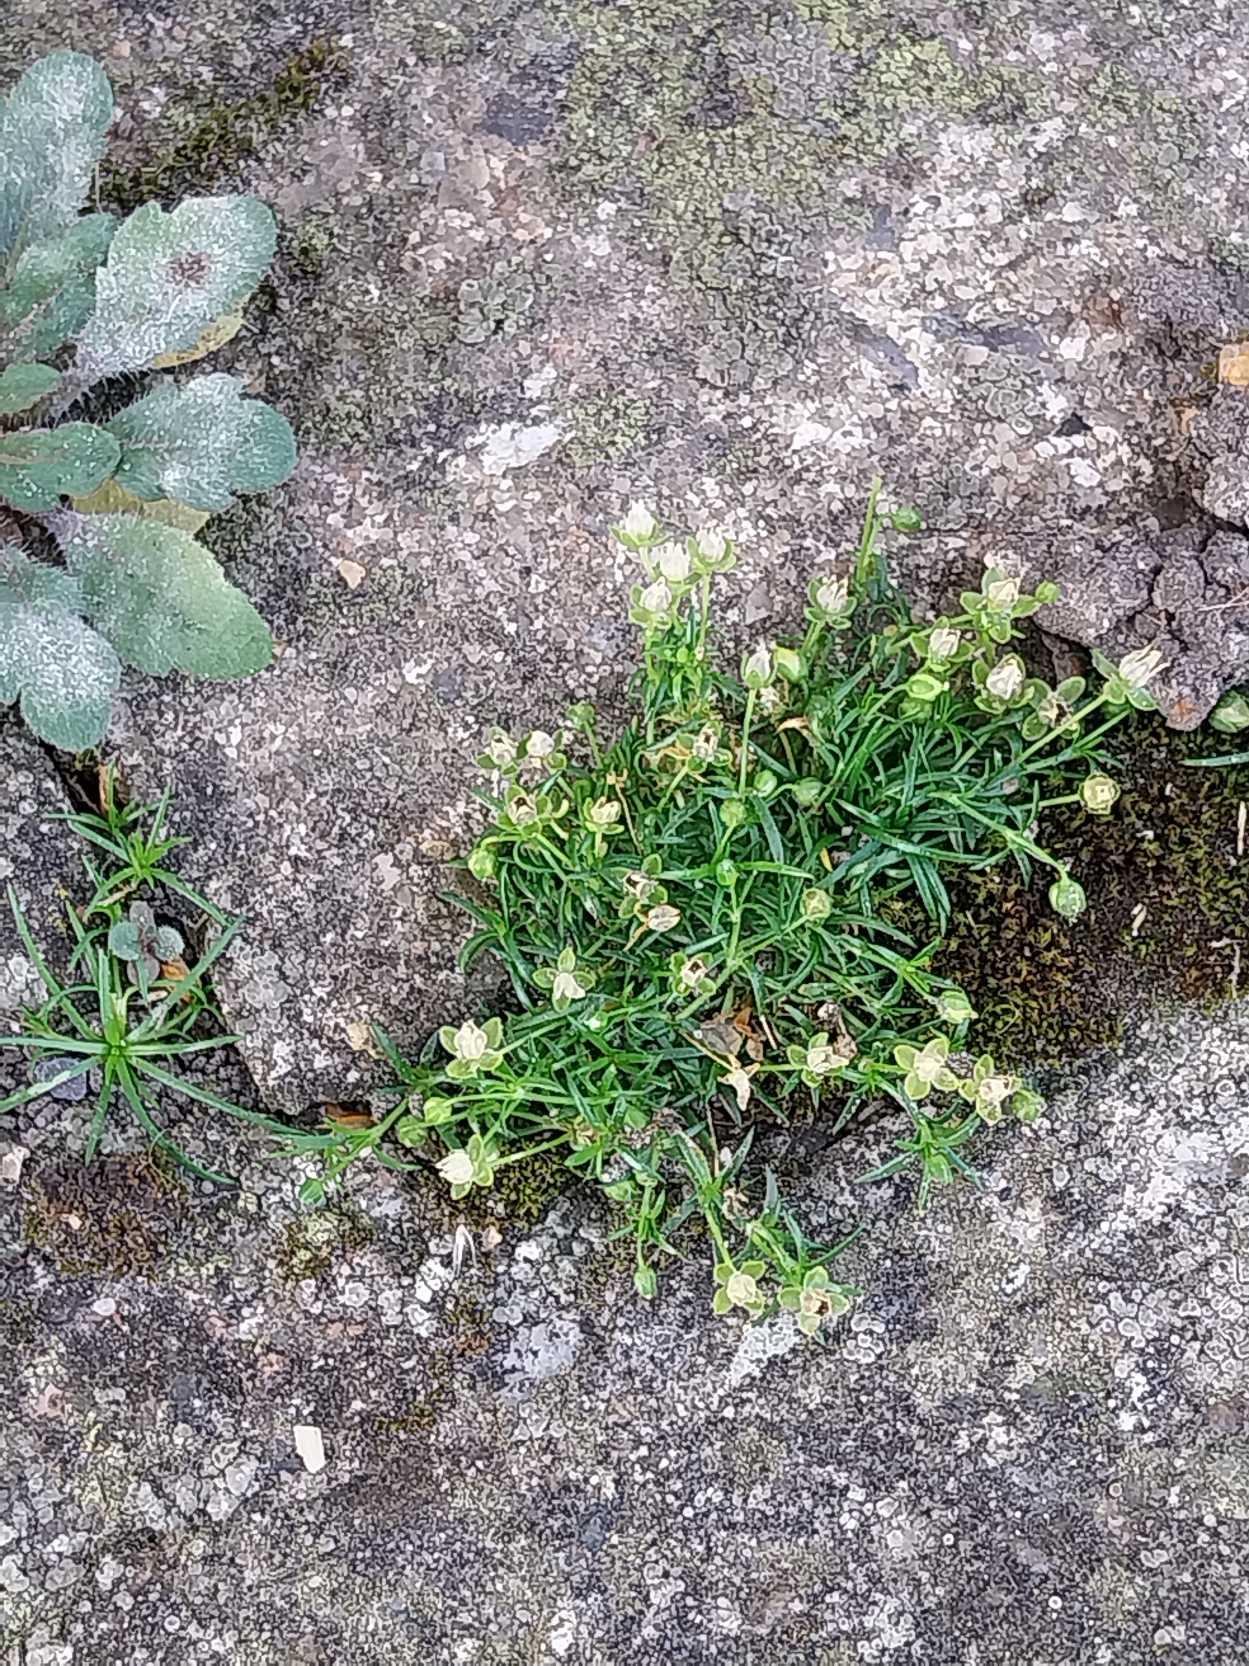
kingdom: Plantae
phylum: Tracheophyta
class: Magnoliopsida
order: Caryophyllales
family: Caryophyllaceae
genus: Sagina
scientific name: Sagina procumbens
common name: Almindelig firling
